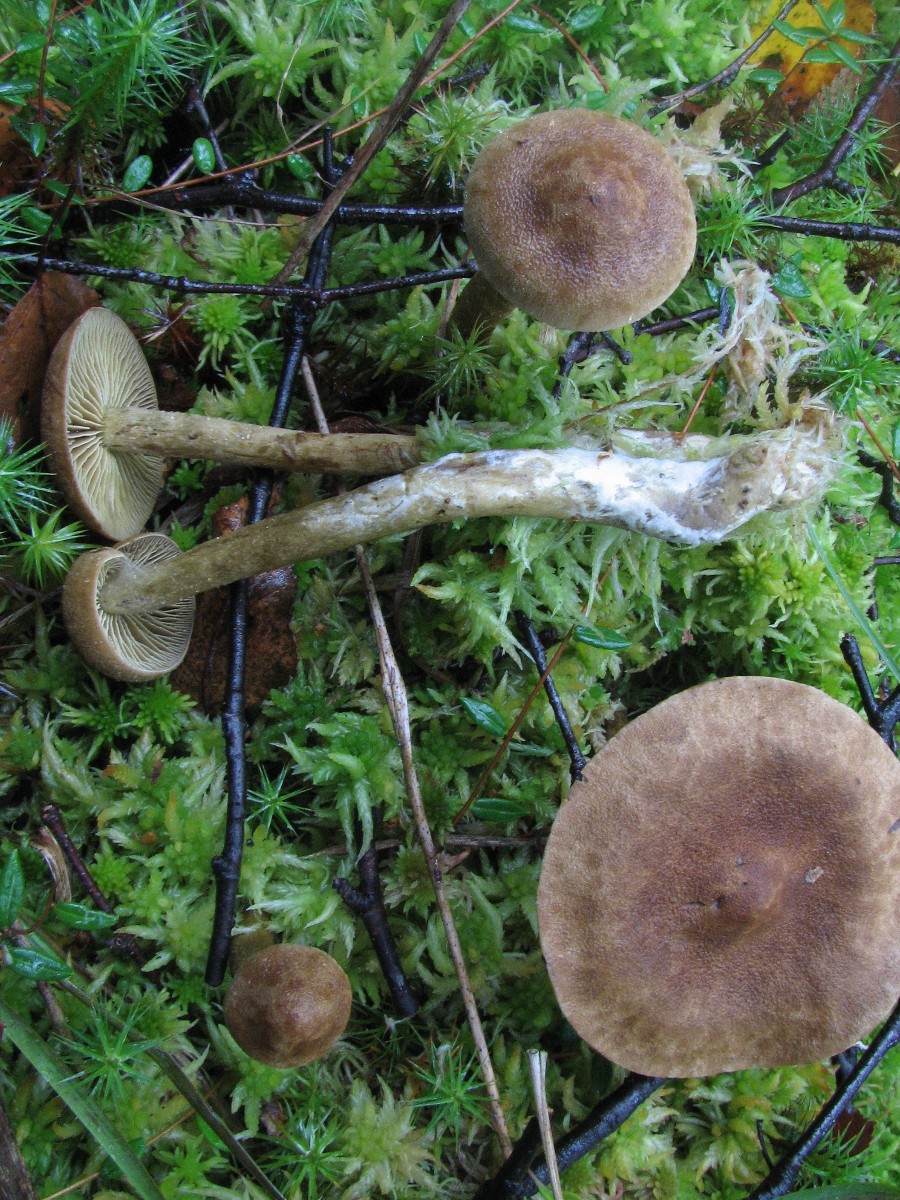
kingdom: Fungi
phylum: Basidiomycota
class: Agaricomycetes
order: Agaricales
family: Cortinariaceae
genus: Cortinarius
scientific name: Cortinarius chrysolitus
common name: tørve-slørhat
